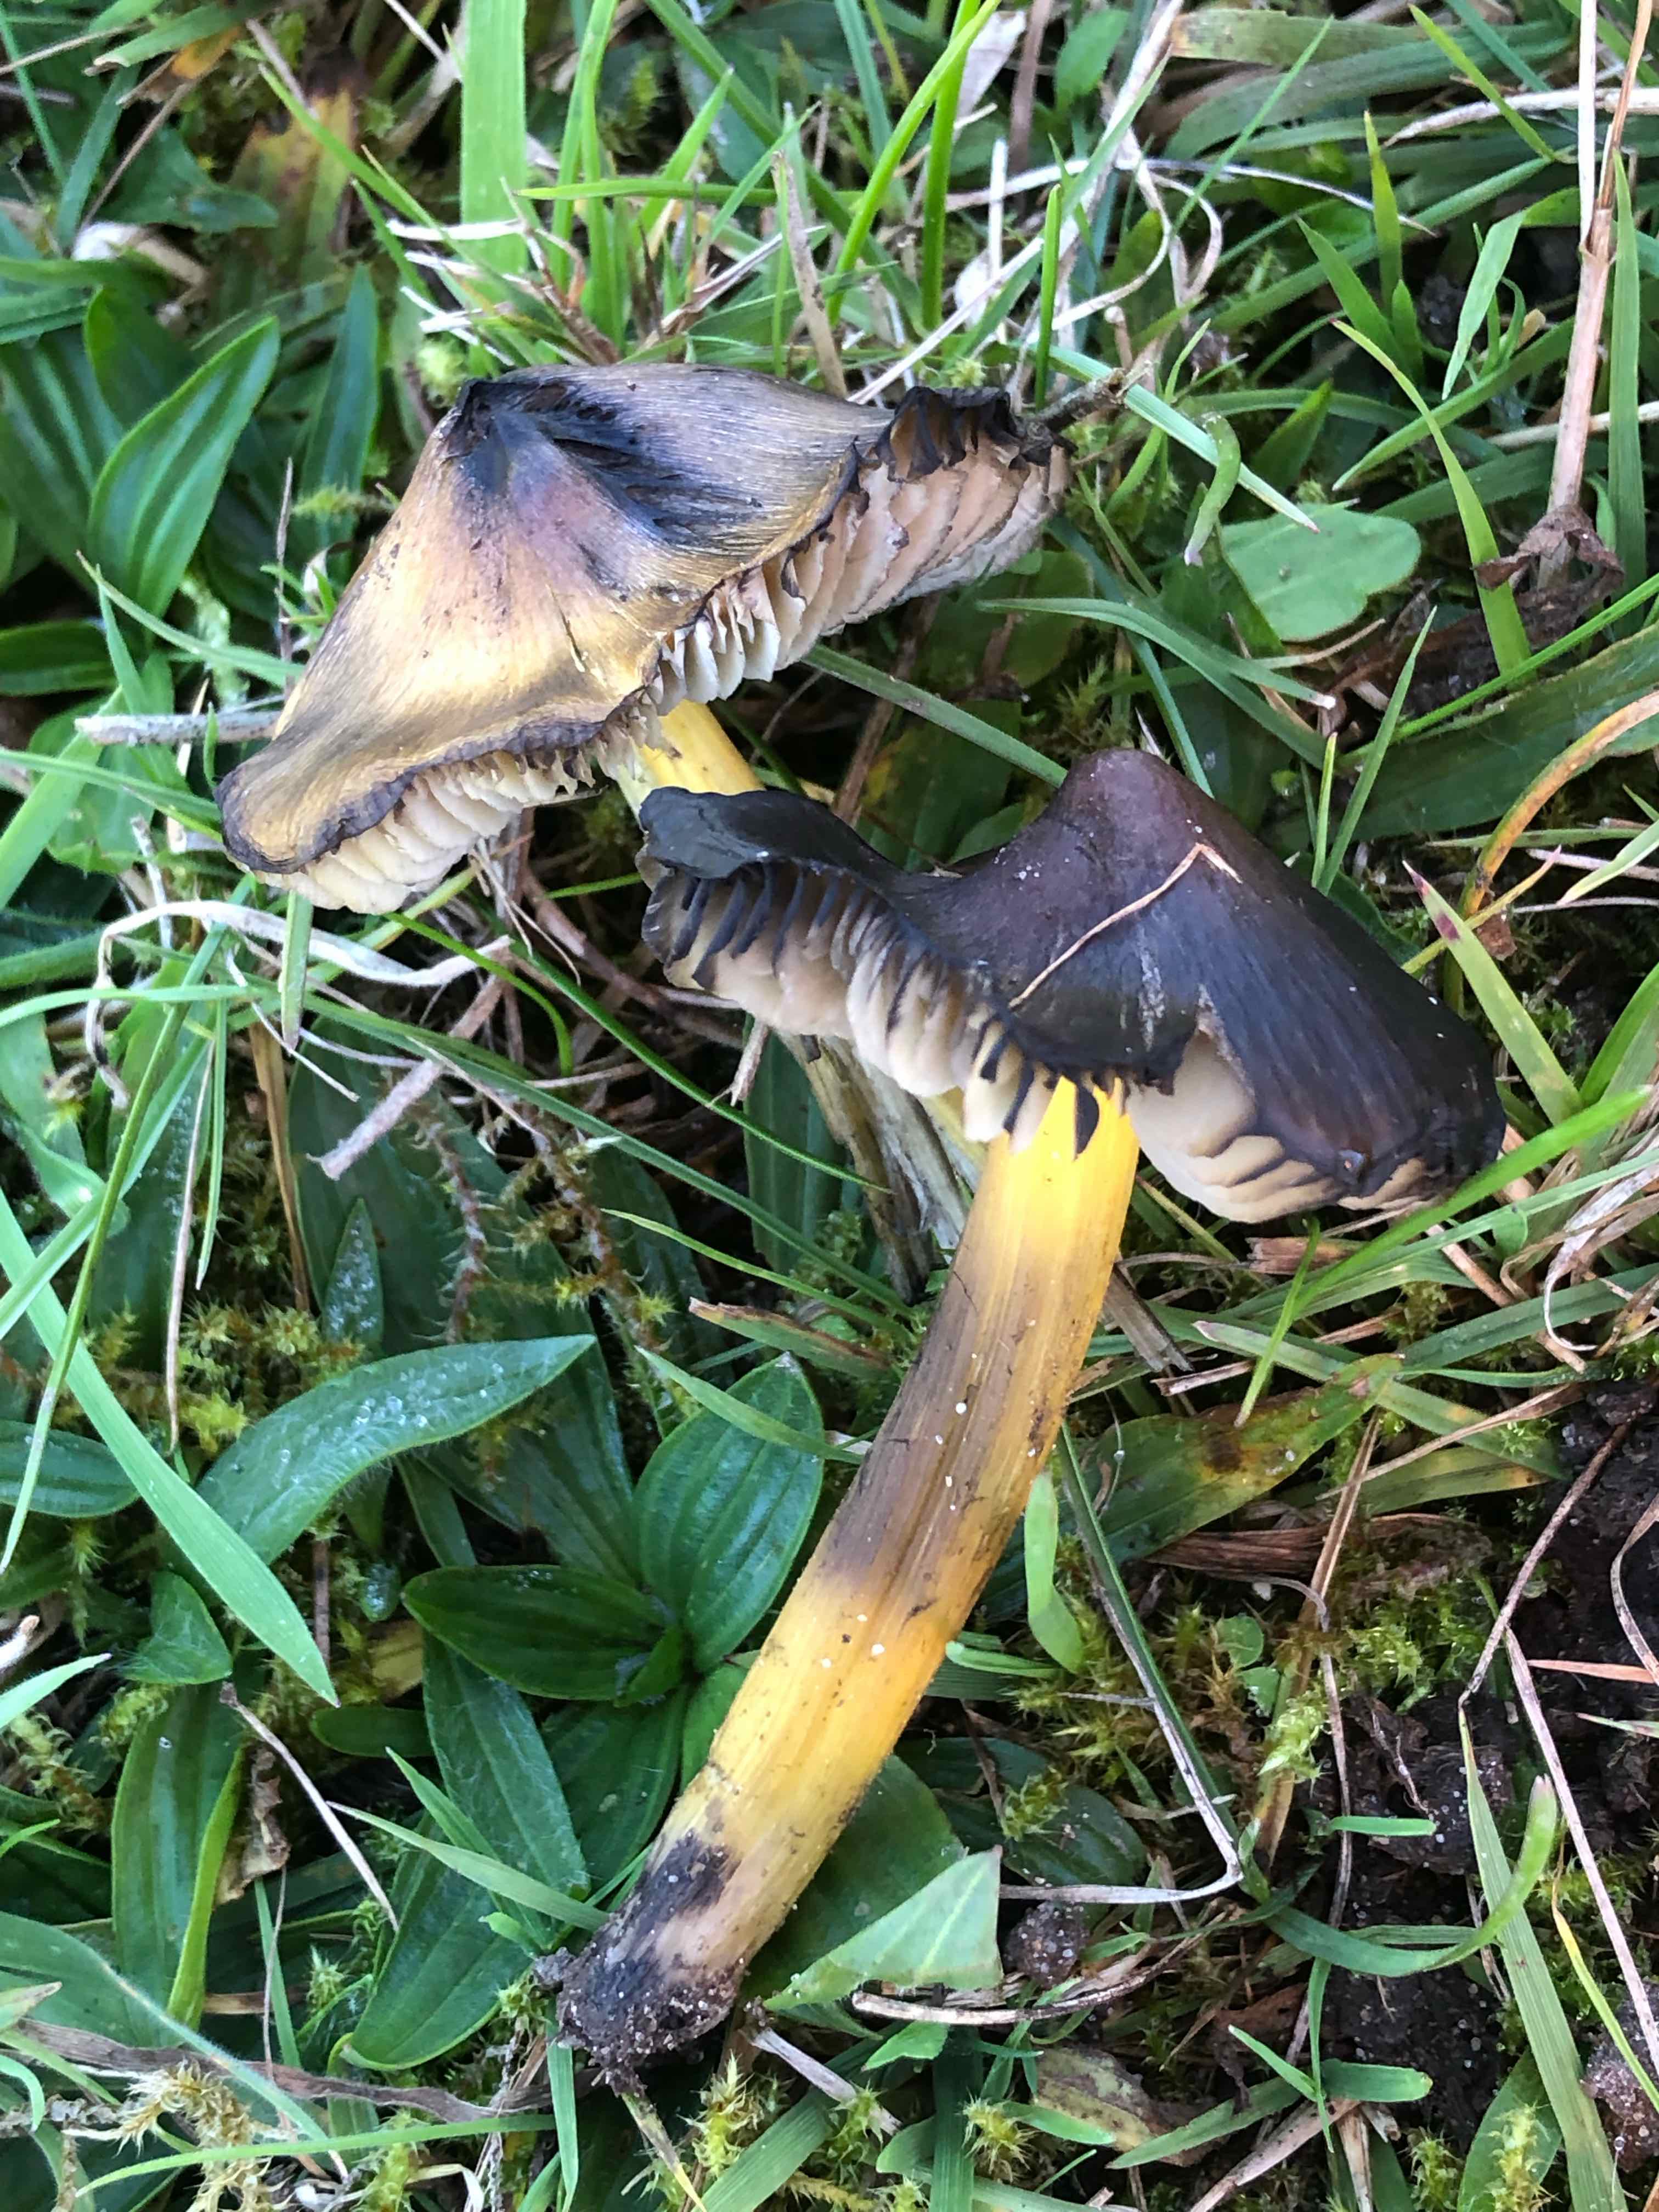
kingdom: Fungi
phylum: Basidiomycota
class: Agaricomycetes
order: Agaricales
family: Hygrophoraceae
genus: Hygrocybe
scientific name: Hygrocybe conica
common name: kegle-vokshat
